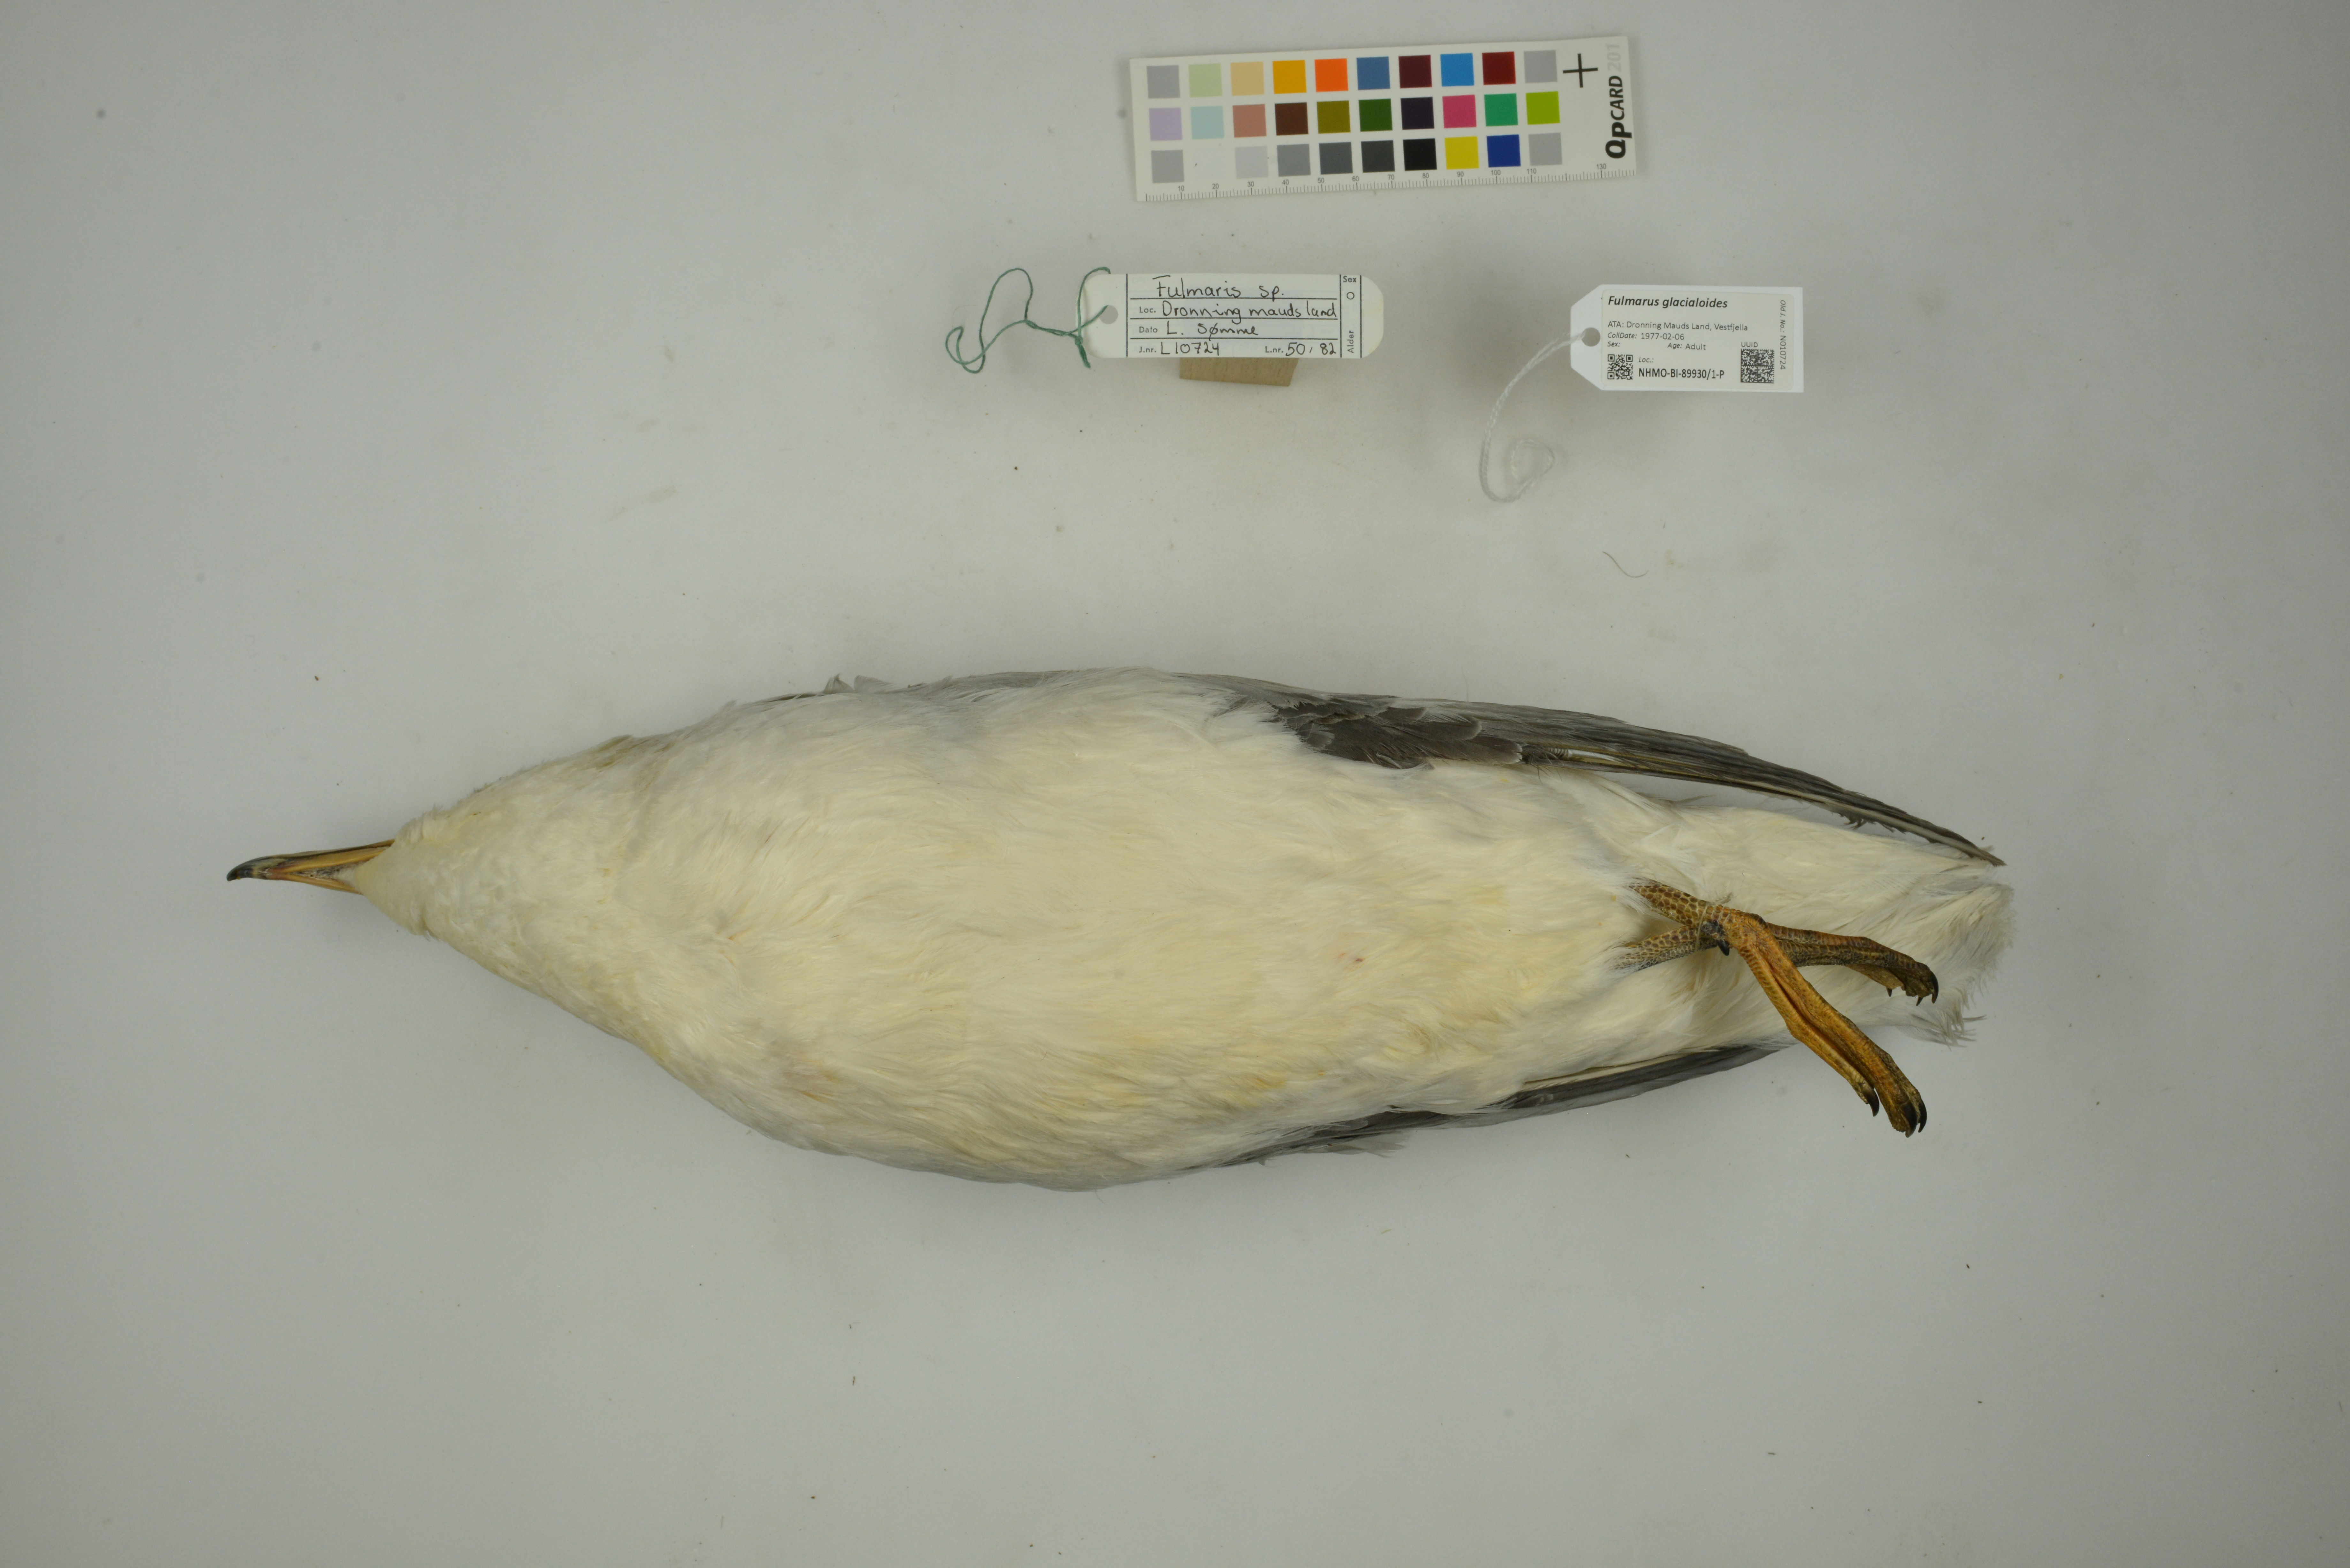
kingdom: Animalia
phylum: Chordata
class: Aves
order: Procellariiformes
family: Procellariidae
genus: Fulmarus
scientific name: Fulmarus glacialoides
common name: Southern fulmar
